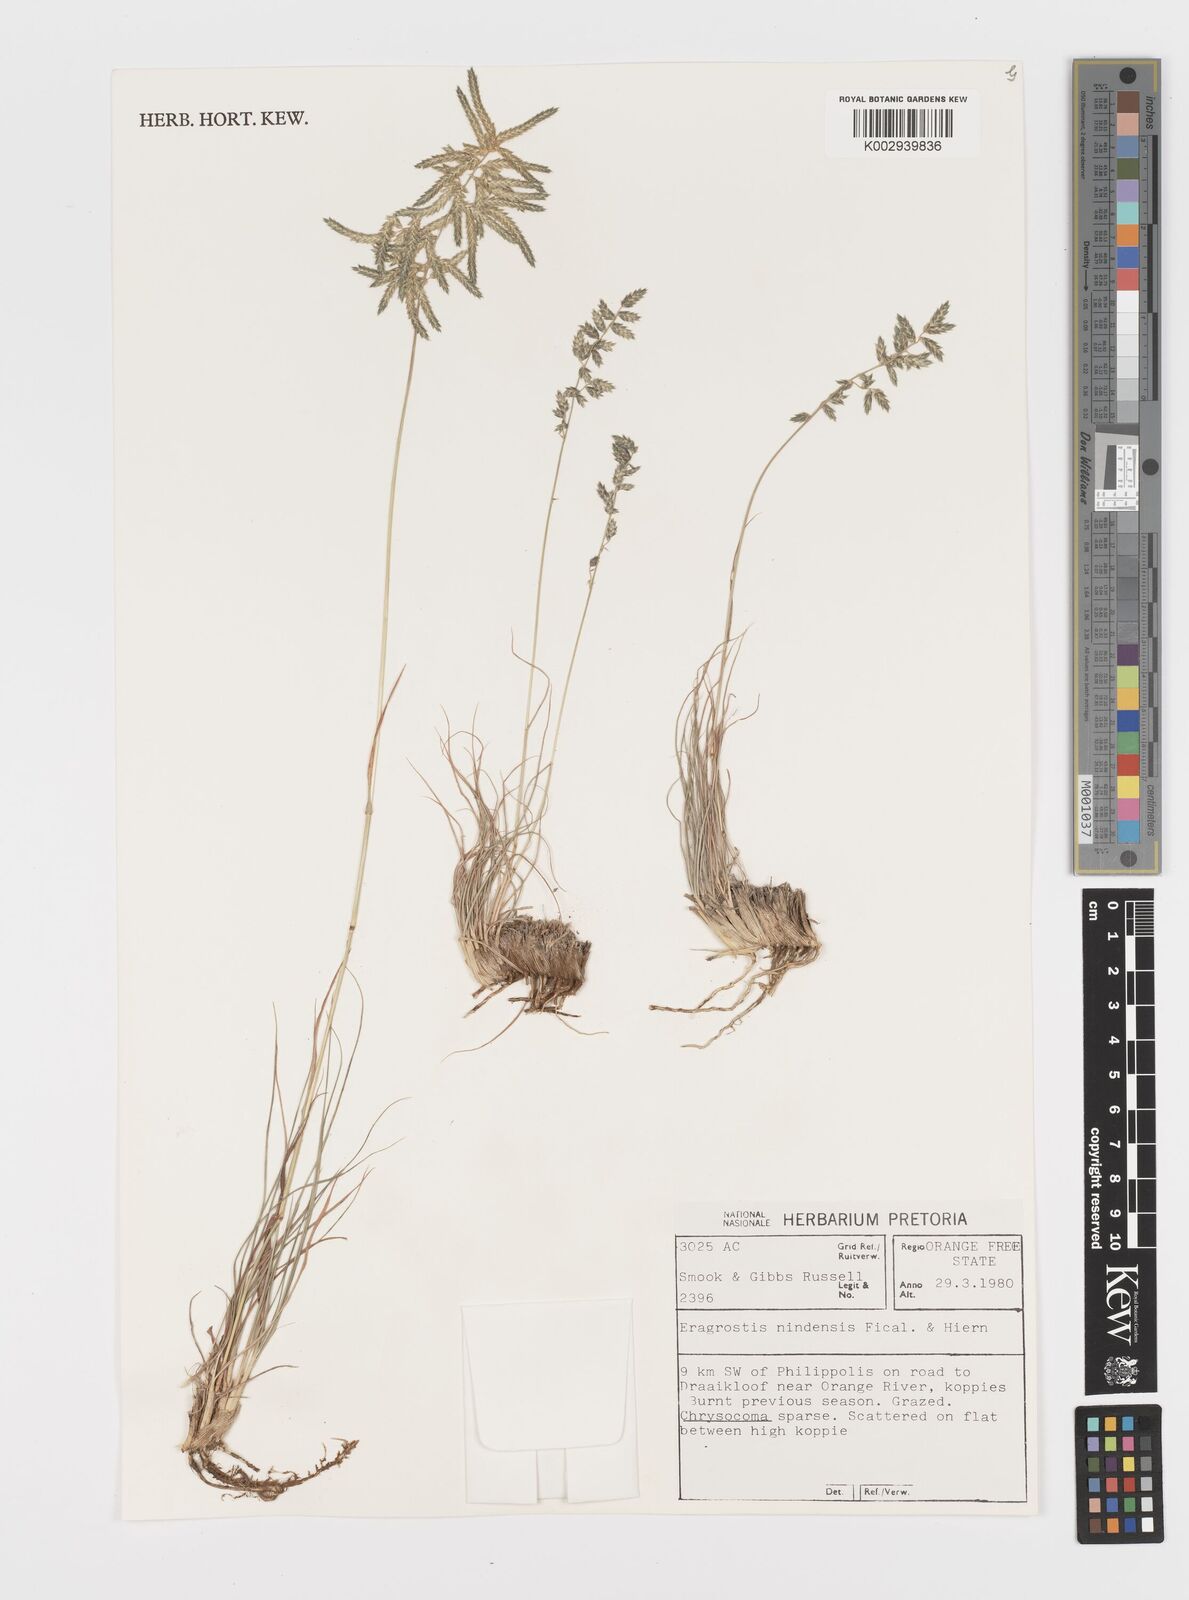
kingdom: Plantae
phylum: Tracheophyta
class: Liliopsida
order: Poales
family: Poaceae
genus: Eragrostis
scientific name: Eragrostis nindensis
